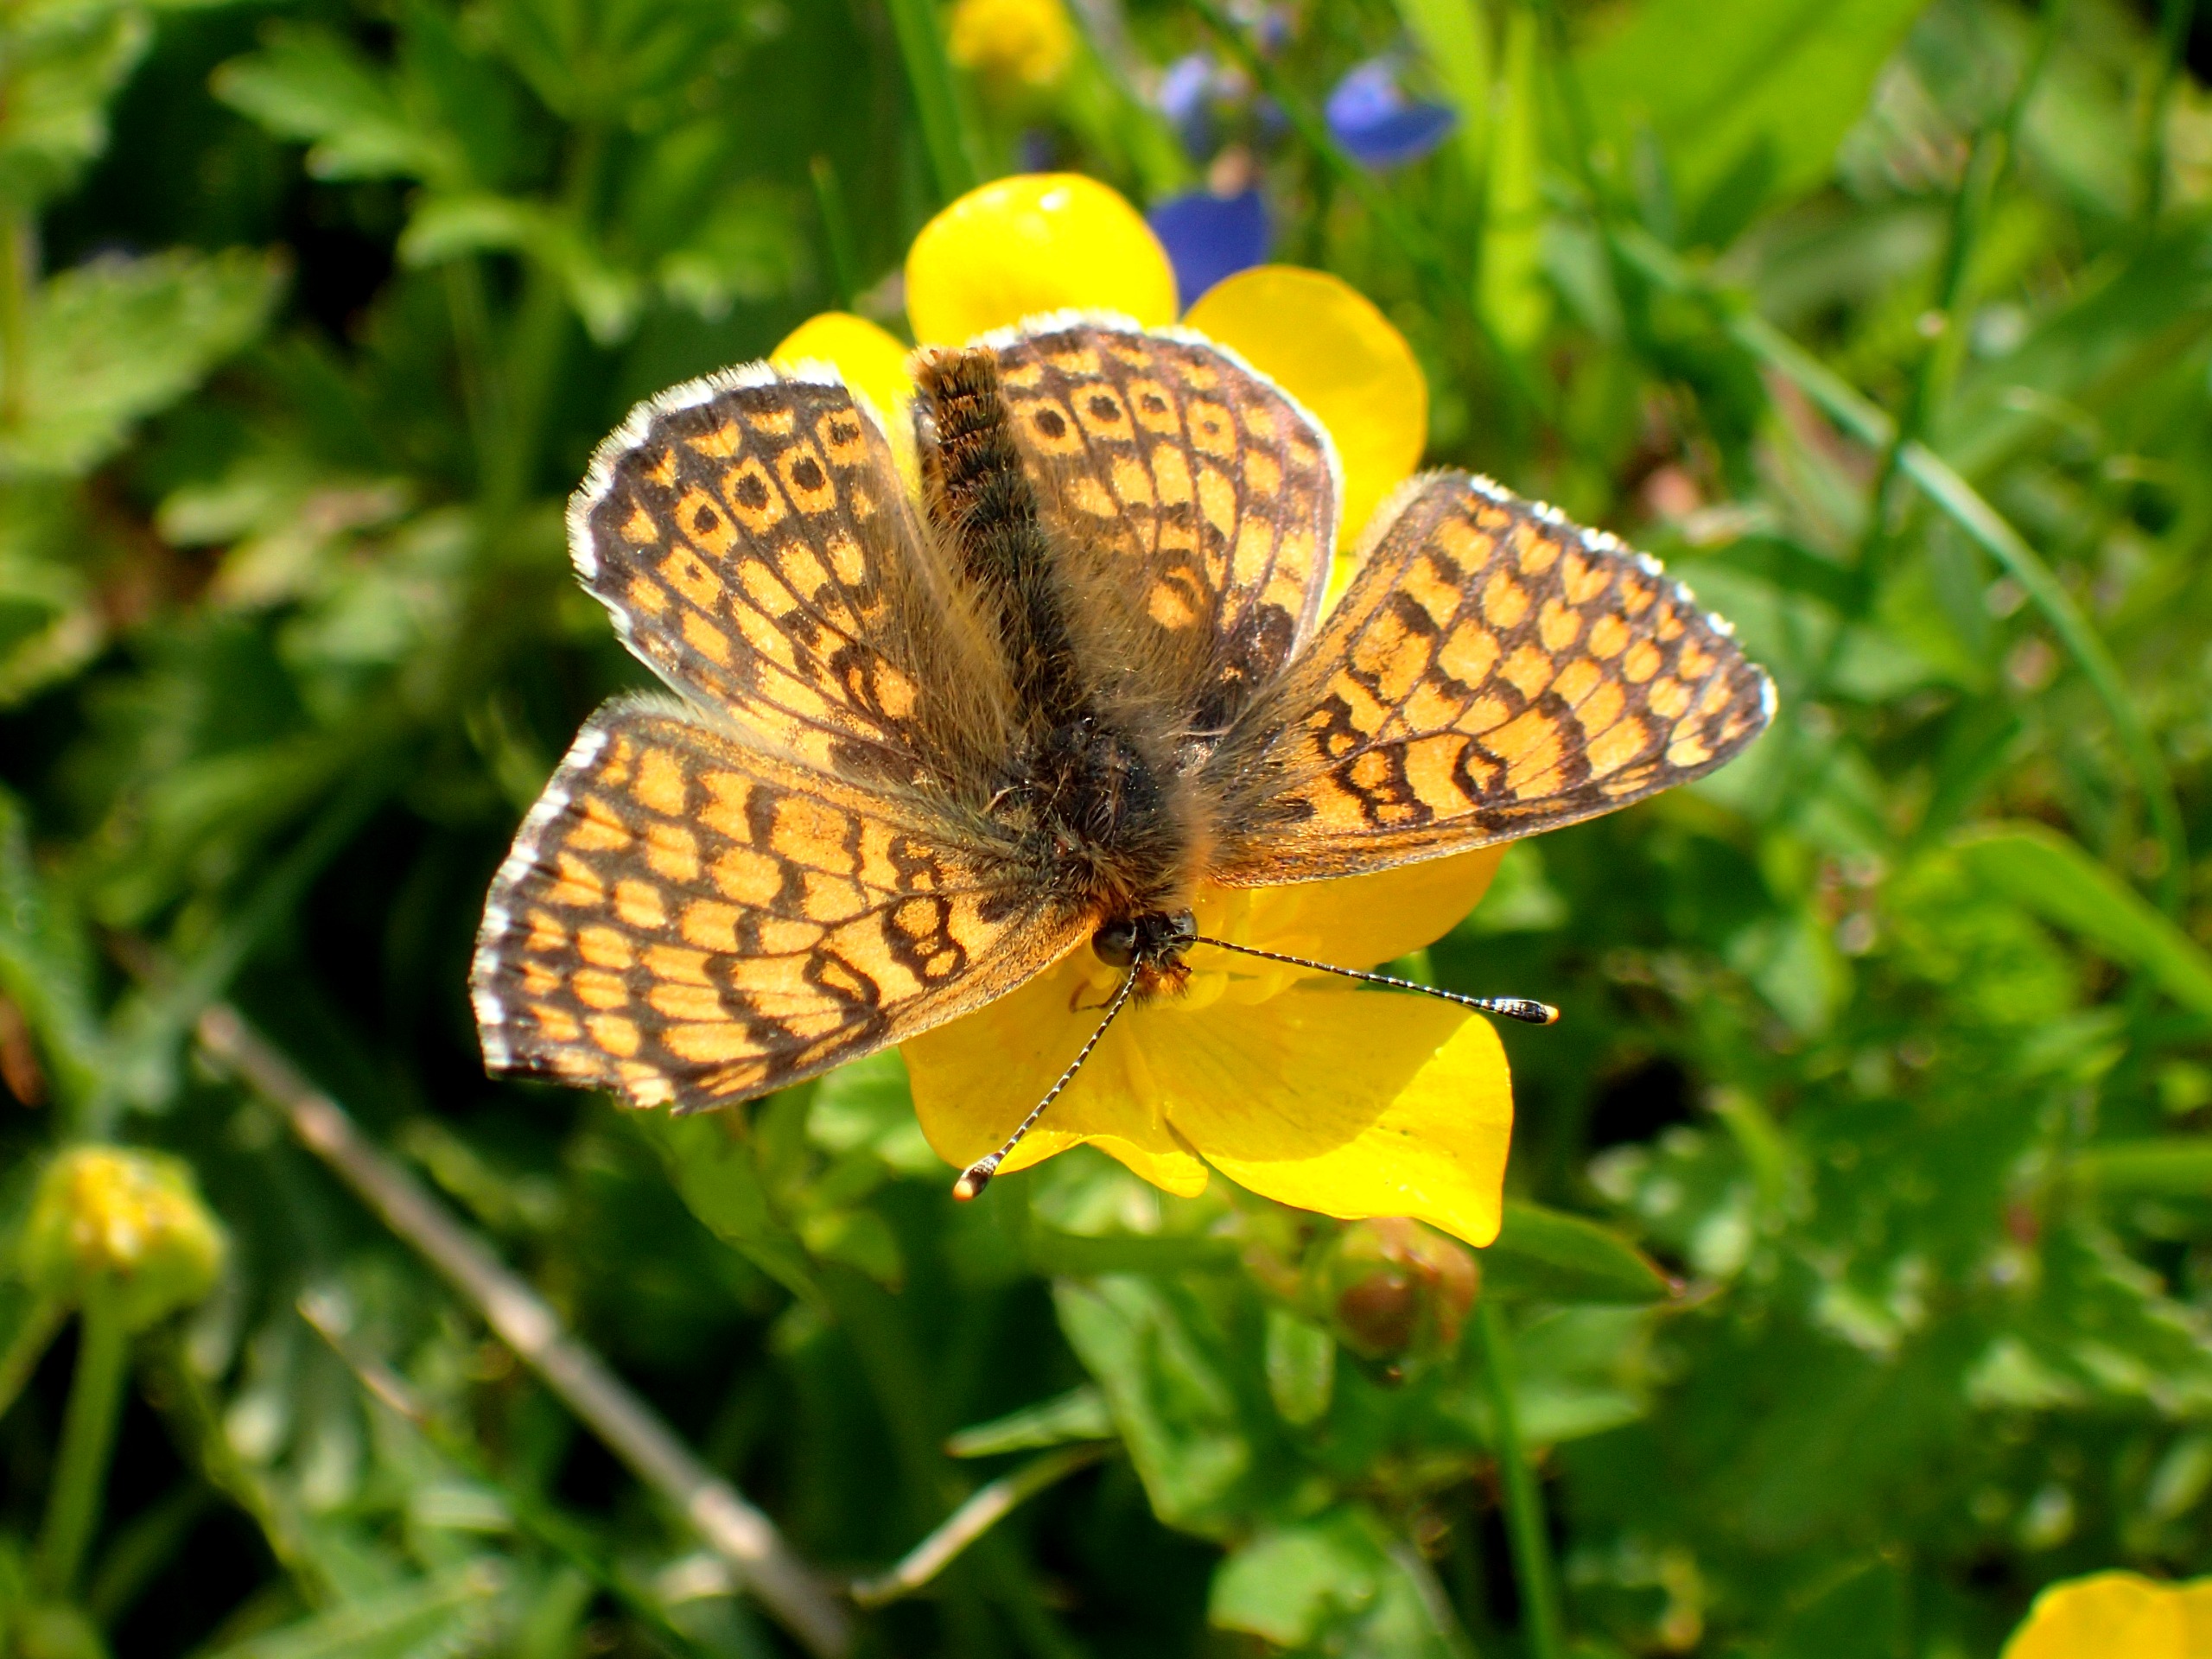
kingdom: Animalia
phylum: Arthropoda
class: Insecta
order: Lepidoptera
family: Nymphalidae
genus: Melitaea
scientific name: Melitaea cinxia
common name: Okkergul pletvinge
